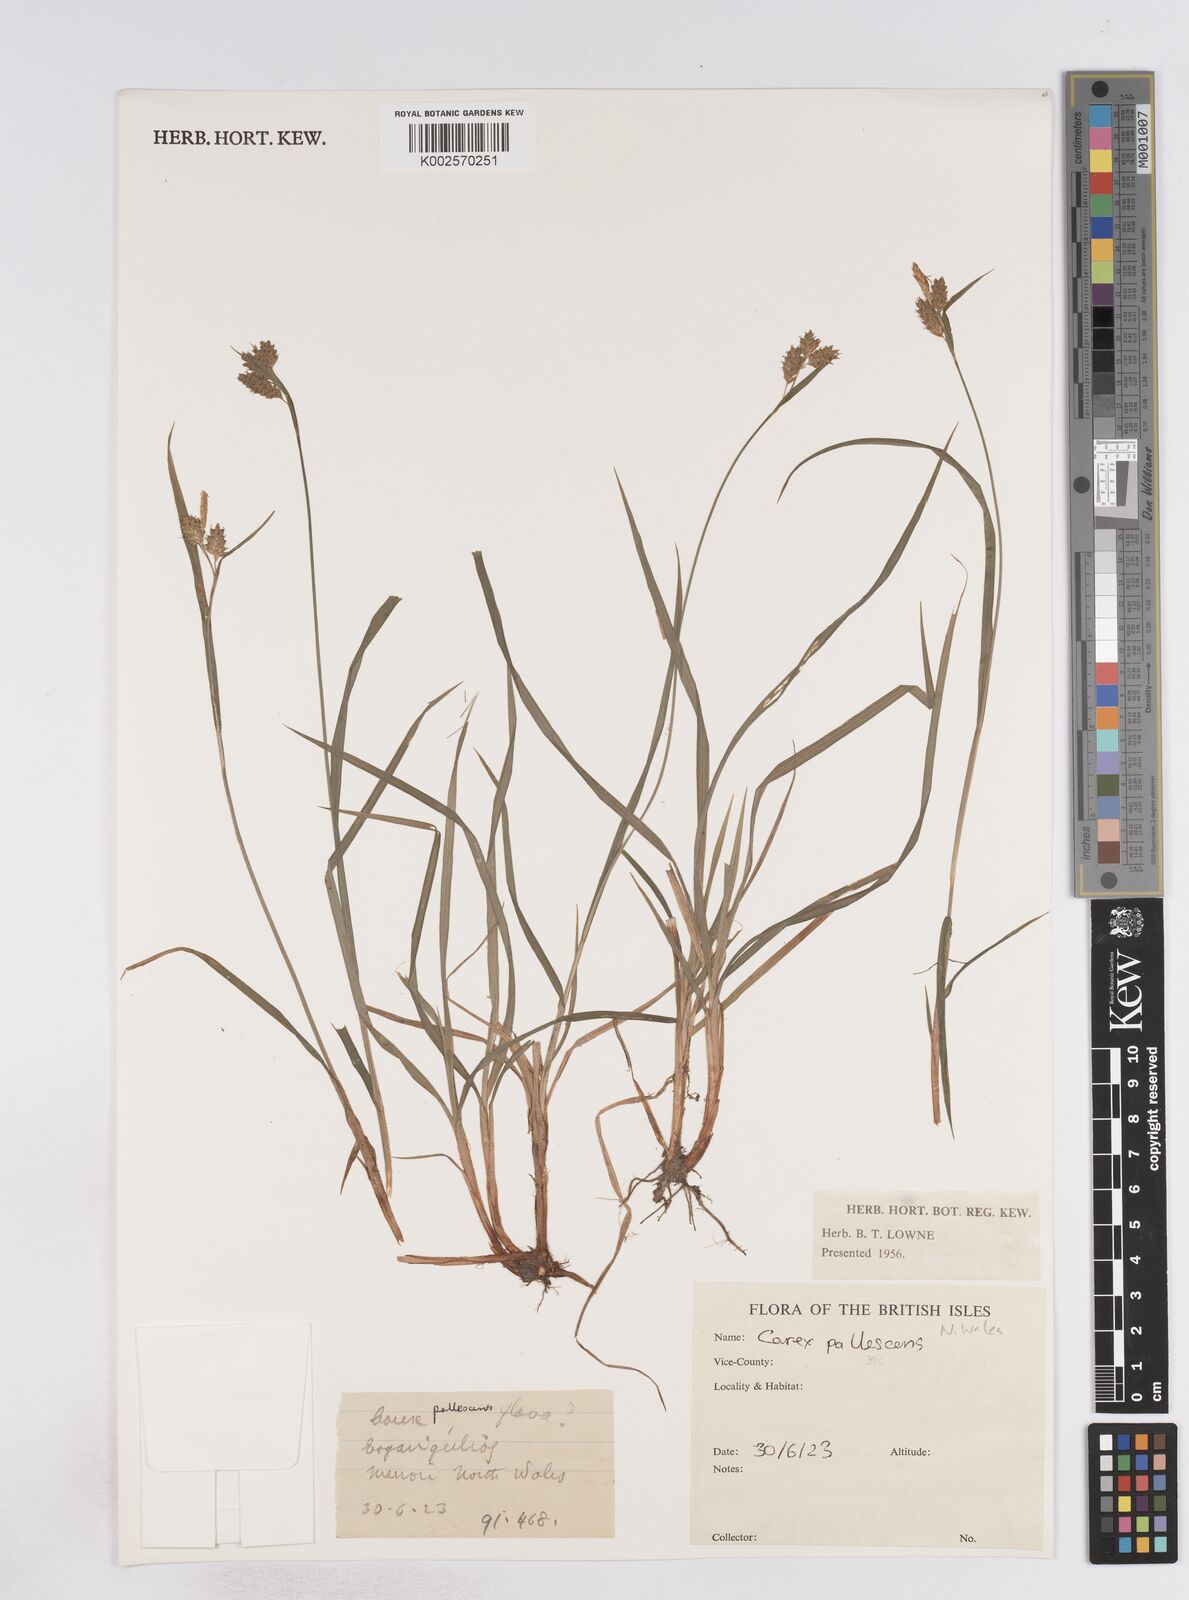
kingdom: Plantae
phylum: Tracheophyta
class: Liliopsida
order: Poales
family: Cyperaceae
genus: Carex
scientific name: Carex pallescens
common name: Pale sedge
